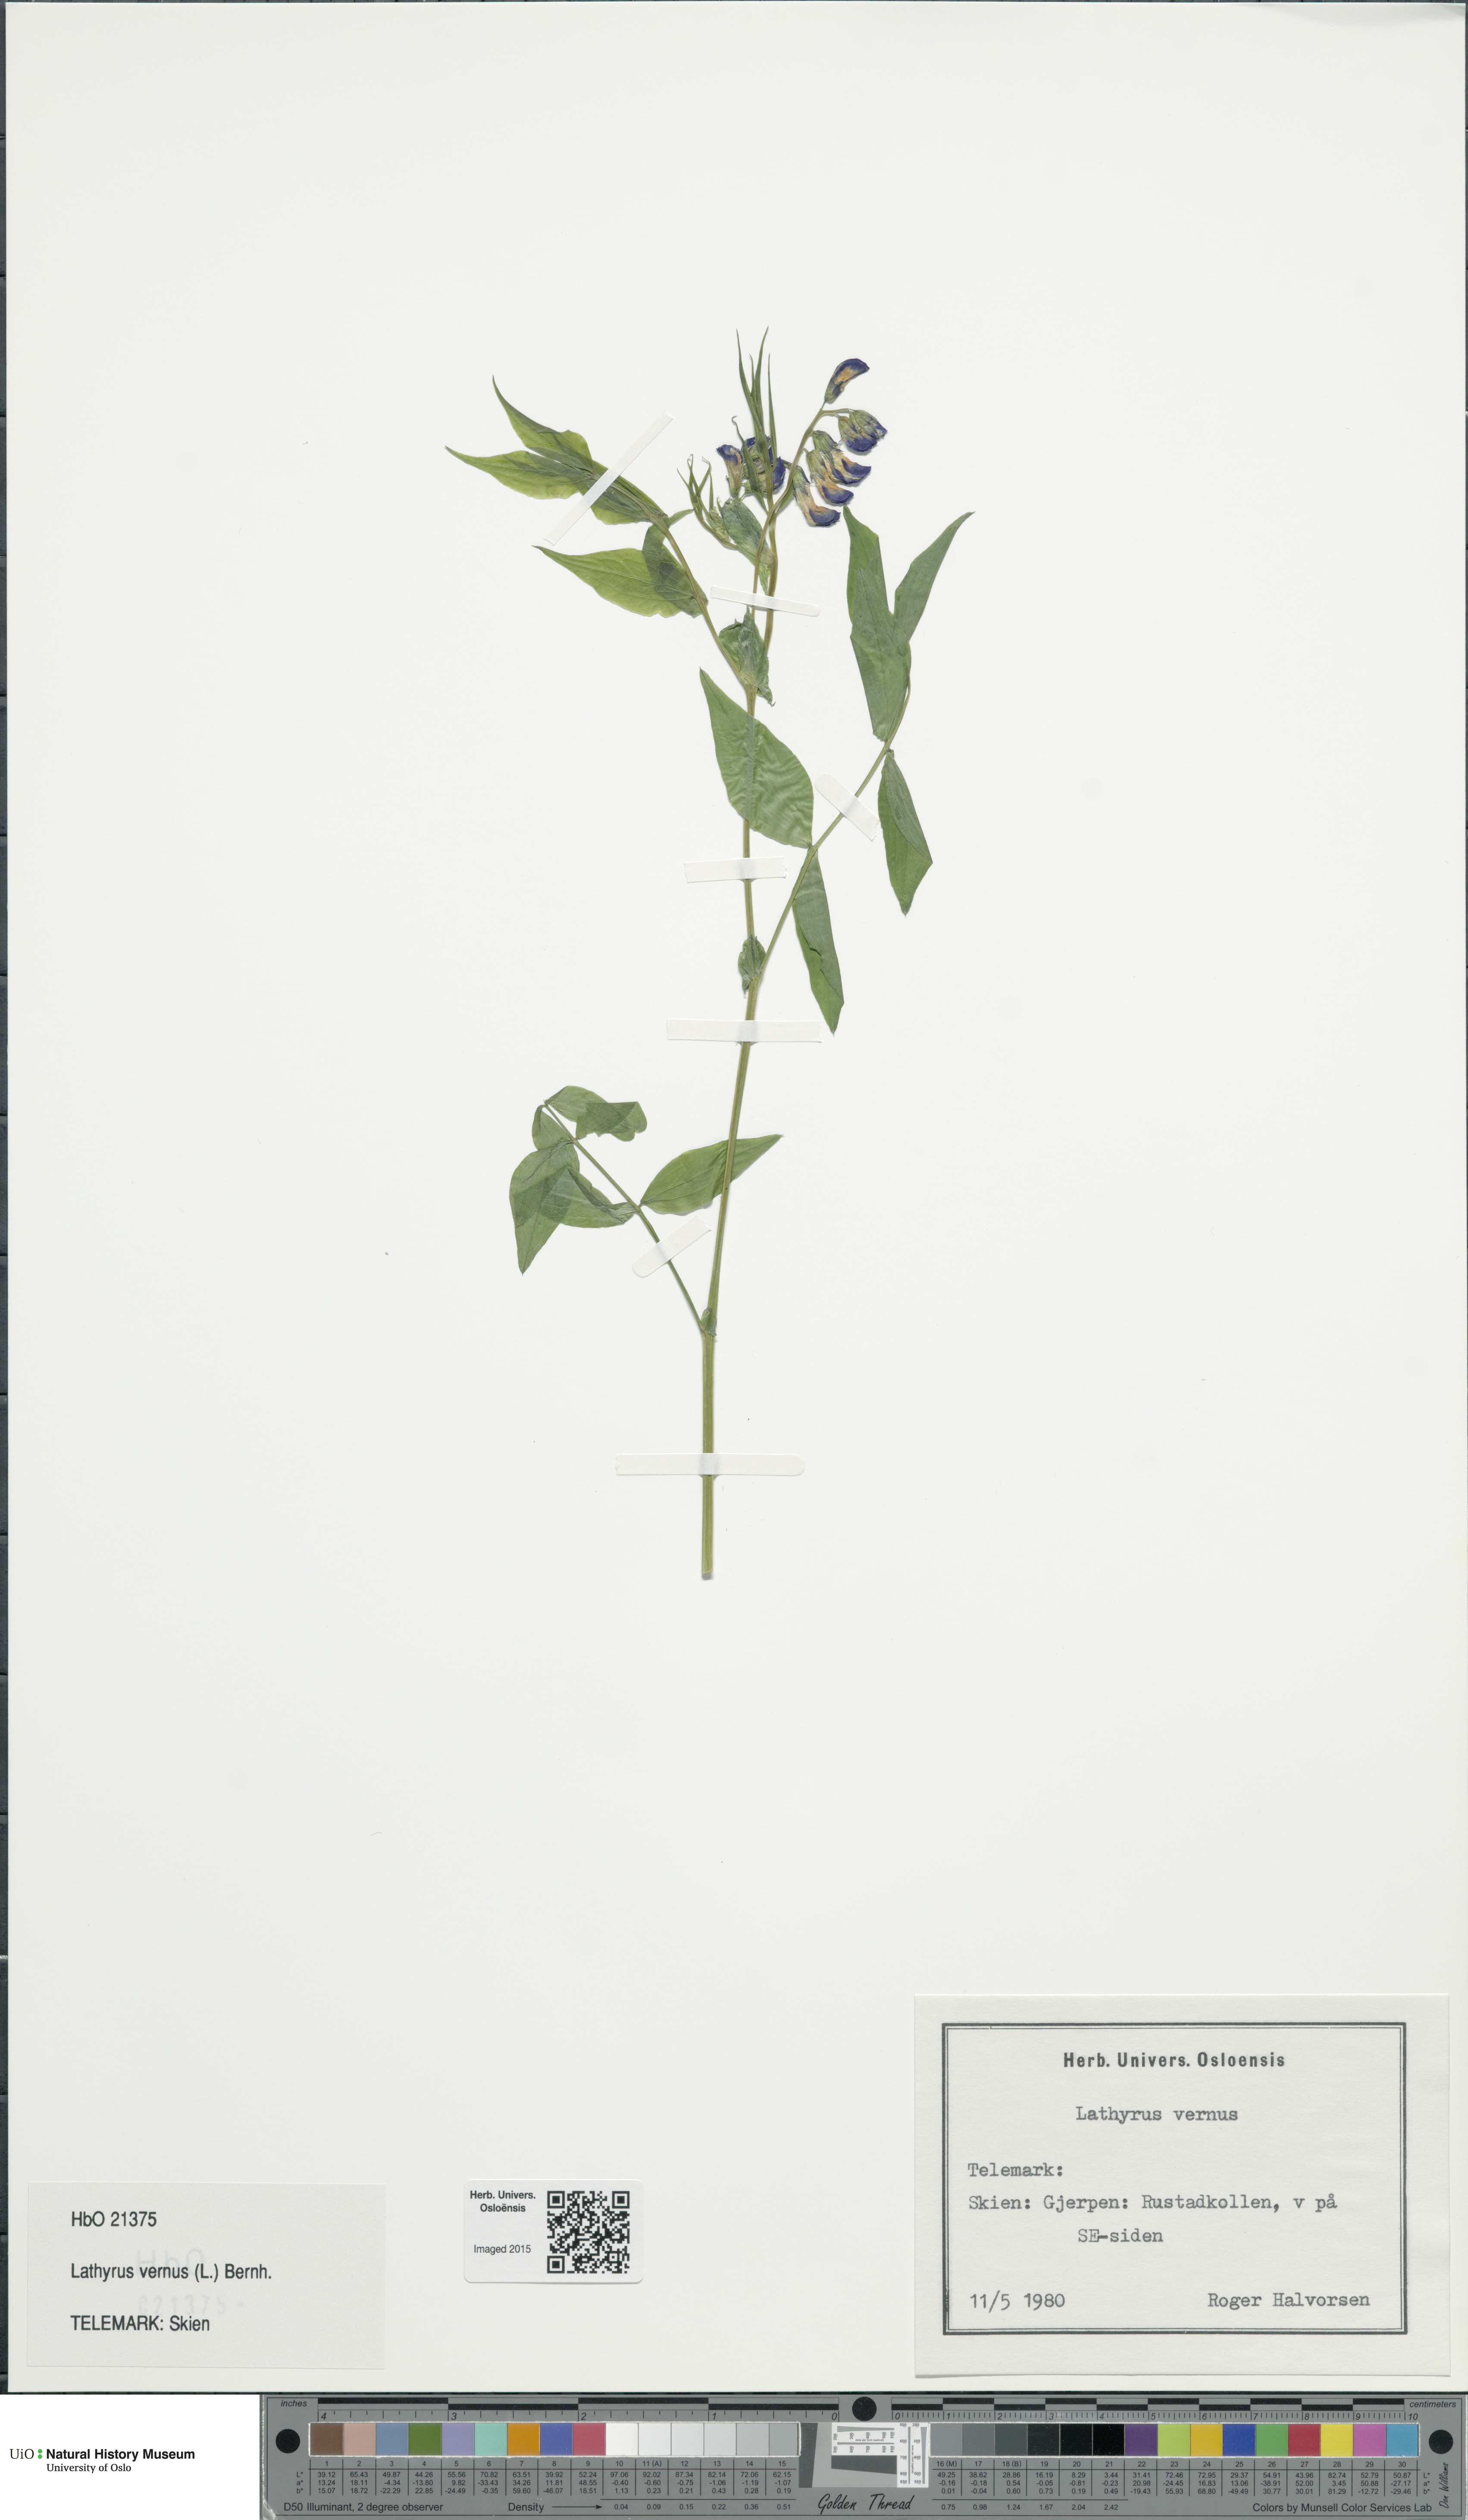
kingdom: Plantae
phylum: Tracheophyta
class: Magnoliopsida
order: Fabales
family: Fabaceae
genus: Lathyrus
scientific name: Lathyrus vernus
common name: Spring pea
